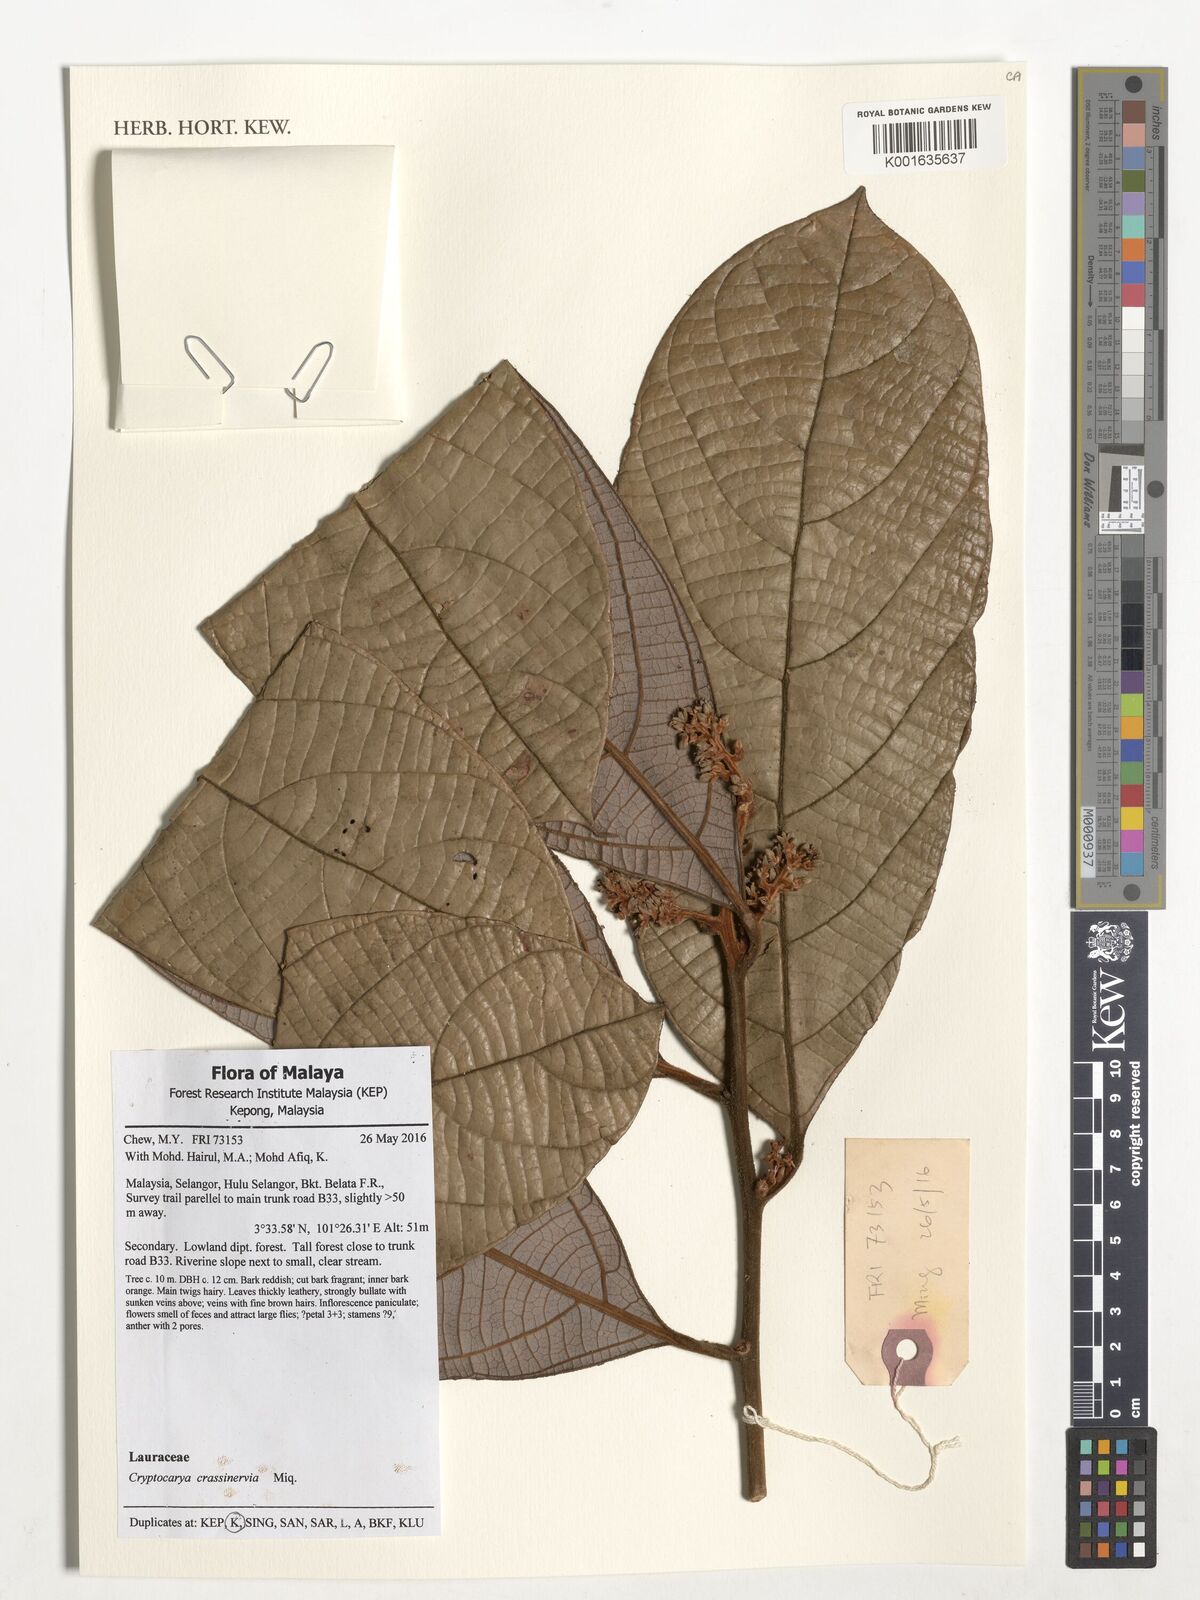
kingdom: Plantae
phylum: Tracheophyta
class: Magnoliopsida
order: Laurales
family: Lauraceae
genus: Cryptocarya
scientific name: Cryptocarya diversifolia
